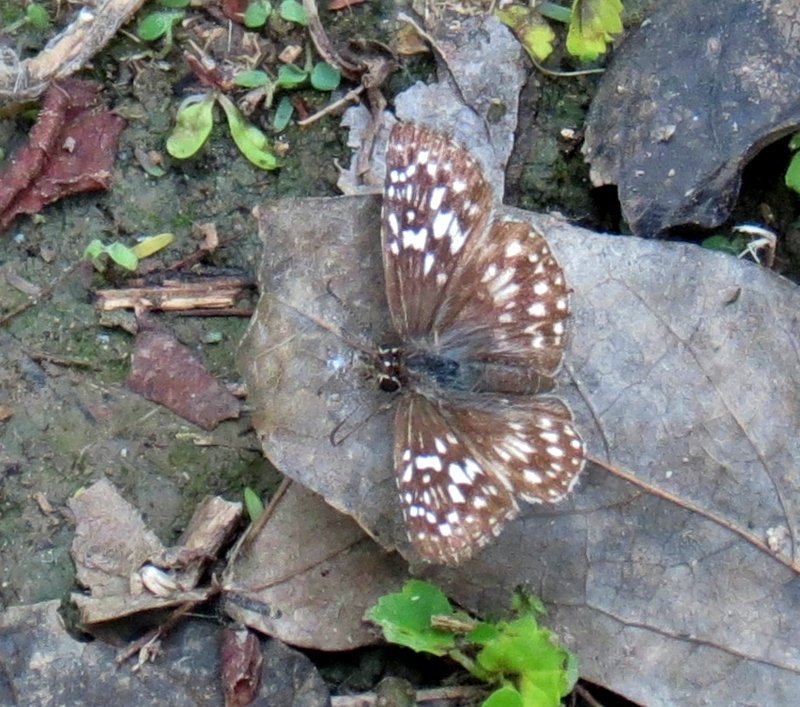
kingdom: Animalia
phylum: Arthropoda
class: Insecta
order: Lepidoptera
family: Hesperiidae
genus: Pyrgus
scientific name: Pyrgus communis
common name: White Checkered-Skipper
